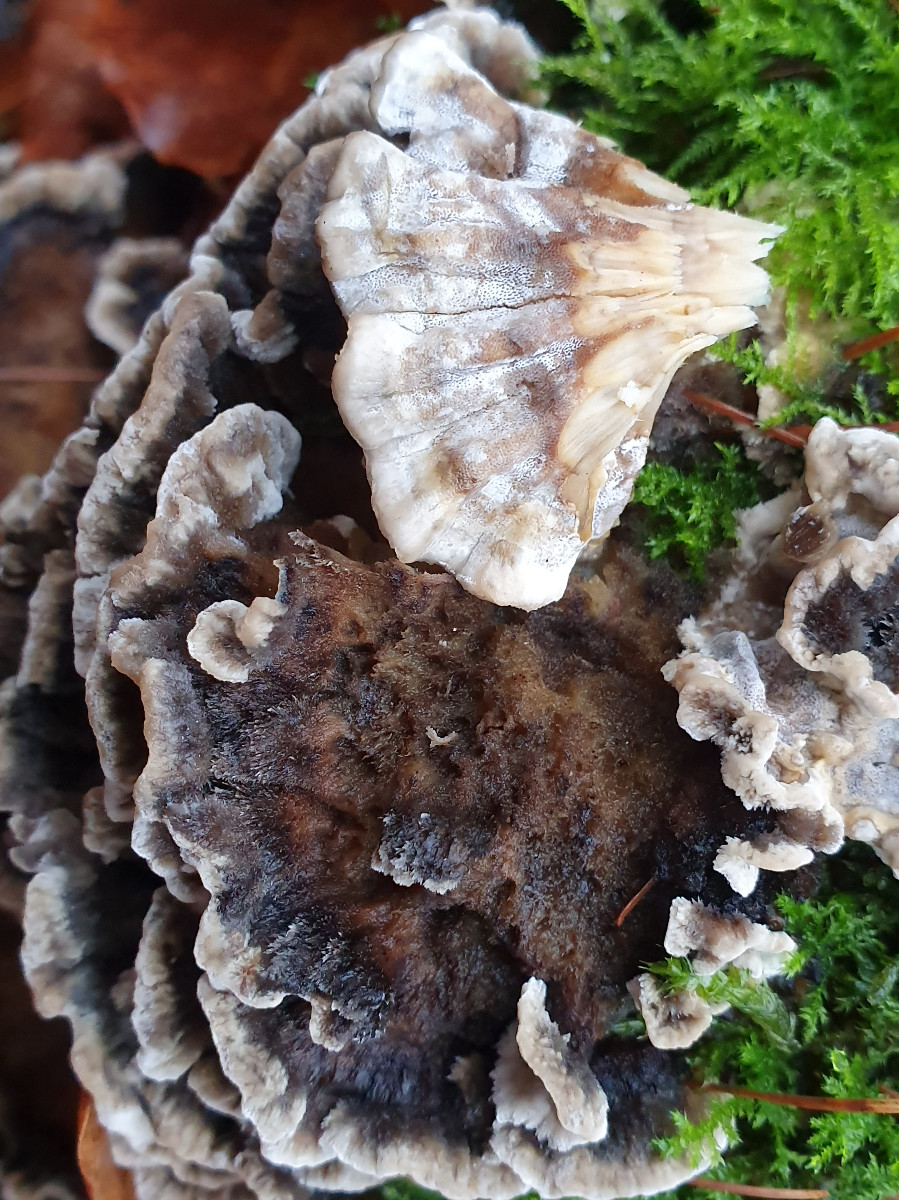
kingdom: Fungi
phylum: Basidiomycota
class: Agaricomycetes
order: Polyporales
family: Phanerochaetaceae
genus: Bjerkandera
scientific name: Bjerkandera adusta
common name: sveden sodporesvamp
